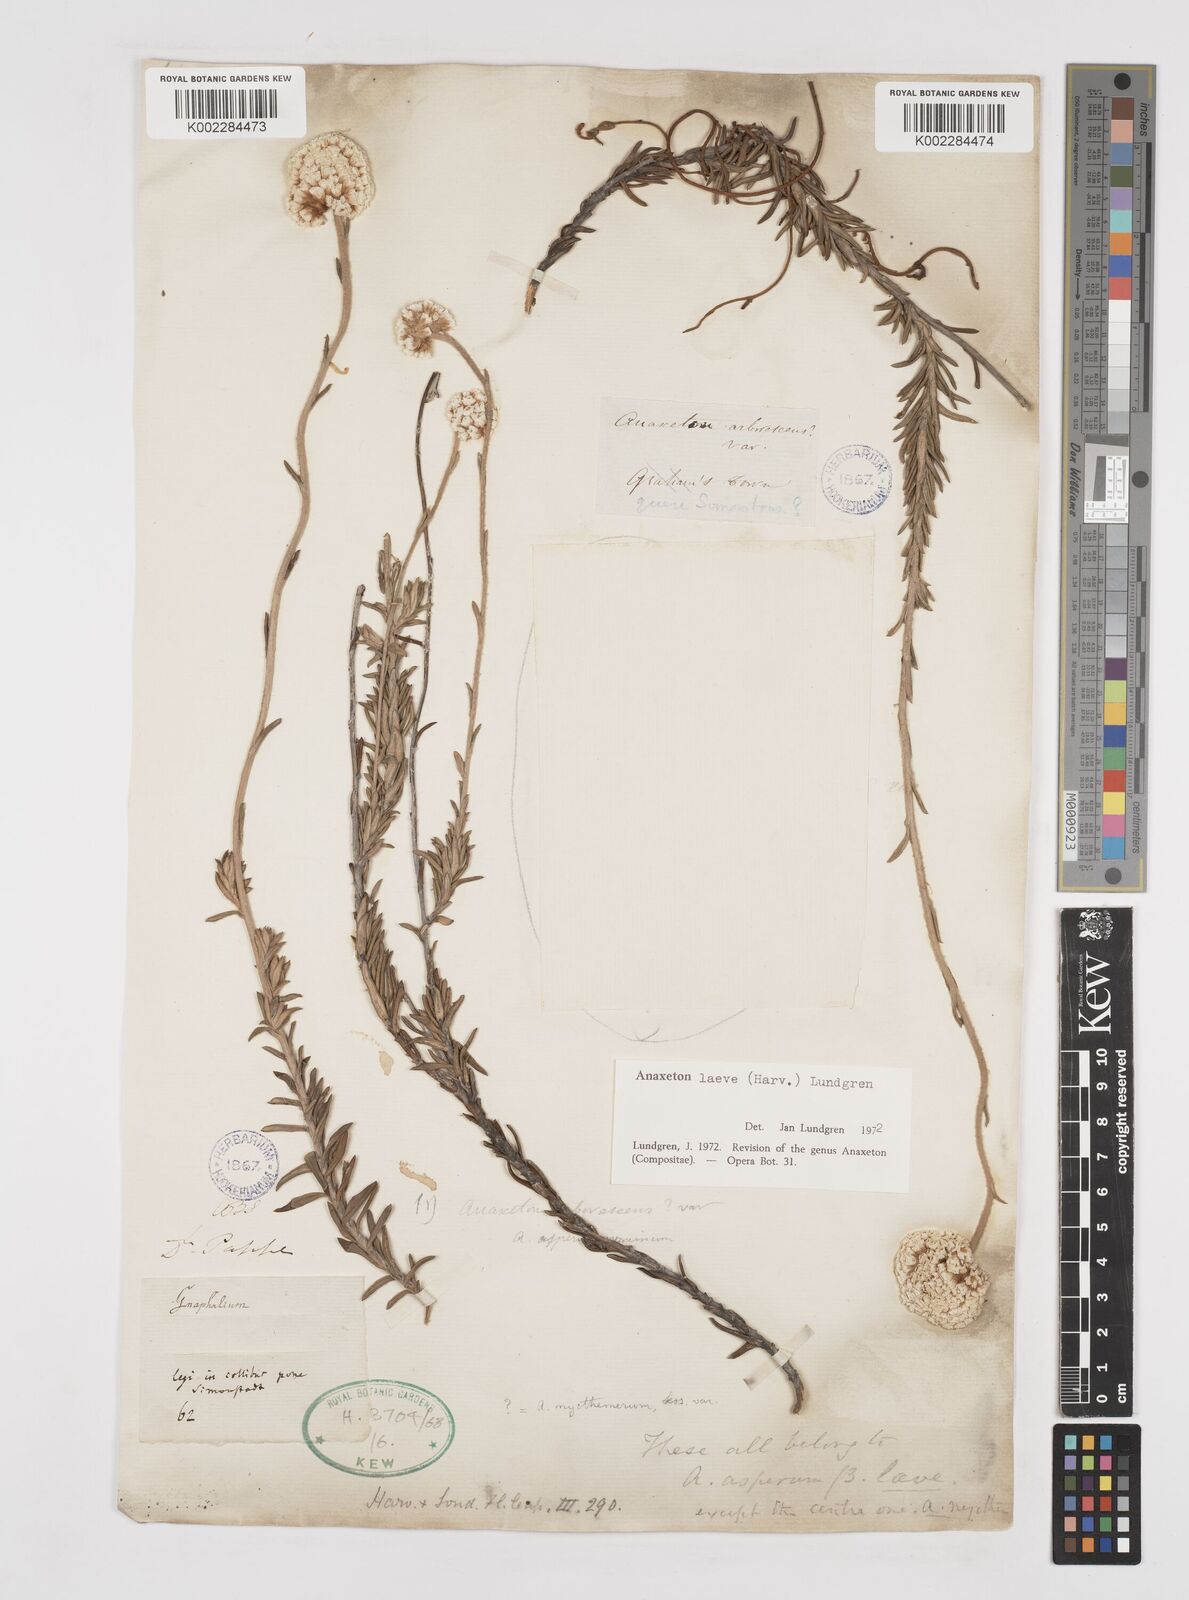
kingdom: Plantae
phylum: Tracheophyta
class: Magnoliopsida
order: Asterales
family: Asteraceae
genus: Anaxeton
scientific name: Anaxeton laeve
